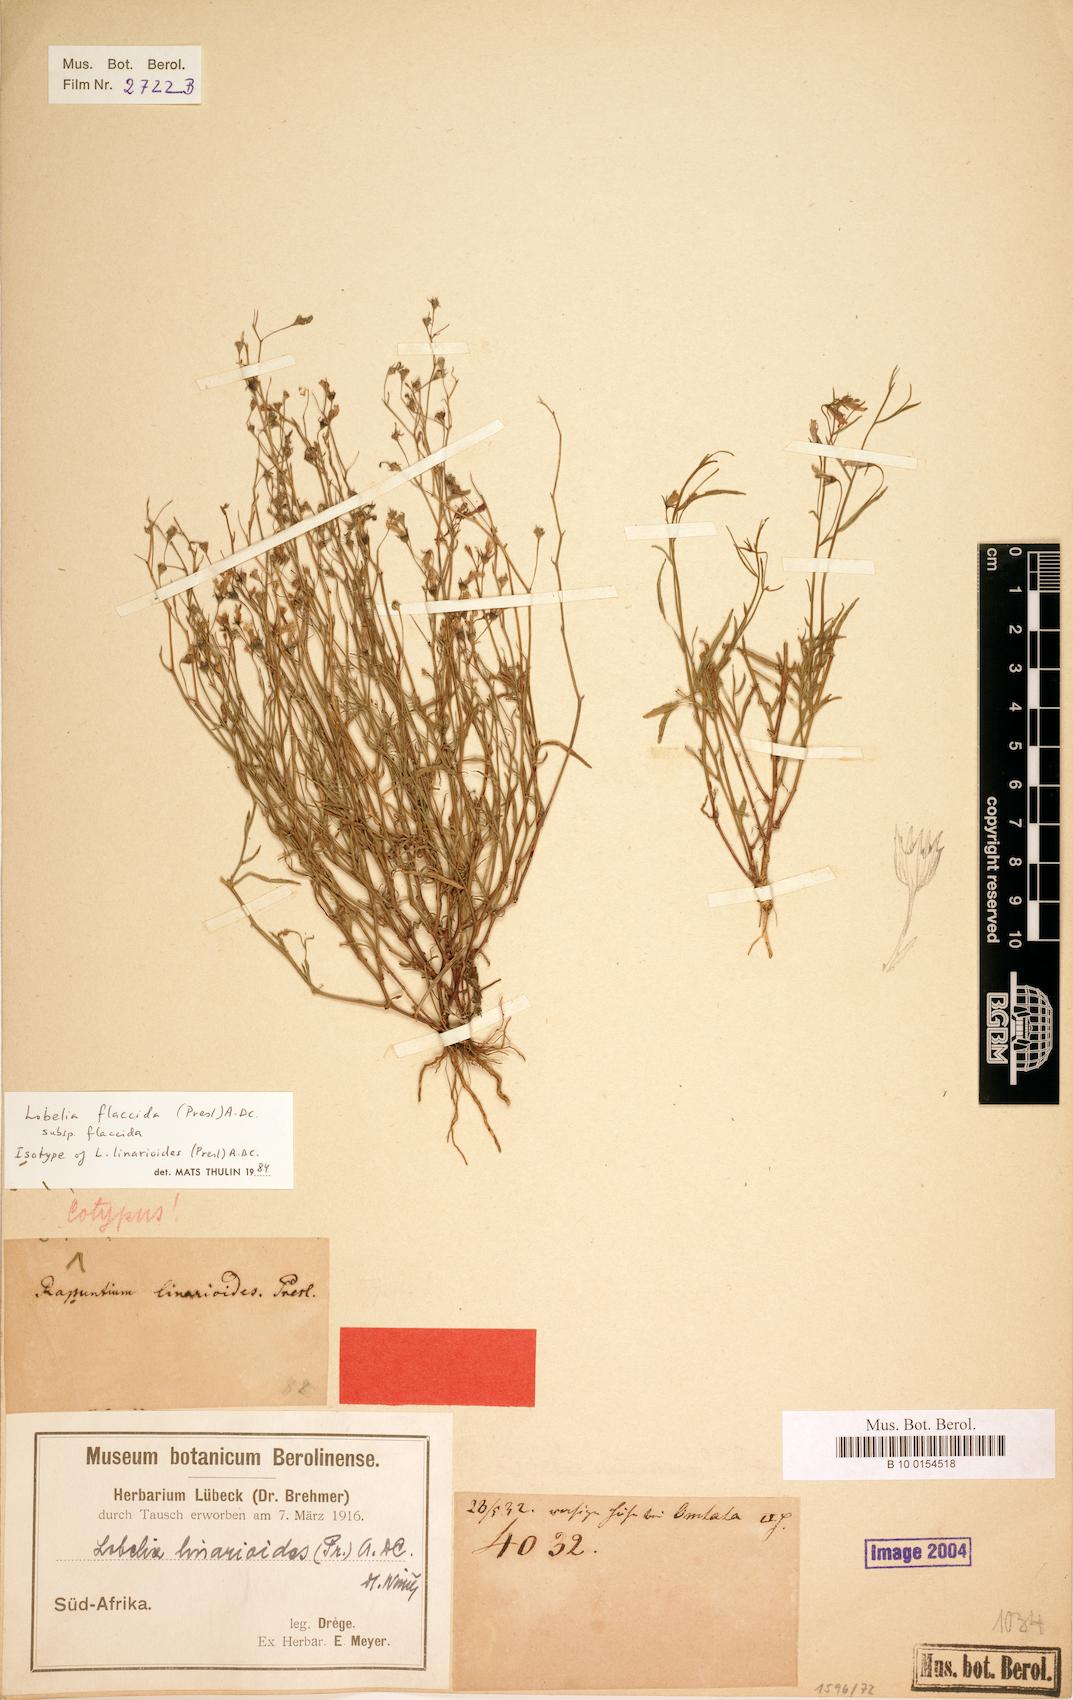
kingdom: Plantae
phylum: Tracheophyta
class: Magnoliopsida
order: Asterales
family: Campanulaceae
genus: Lobelia
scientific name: Lobelia flaccida
